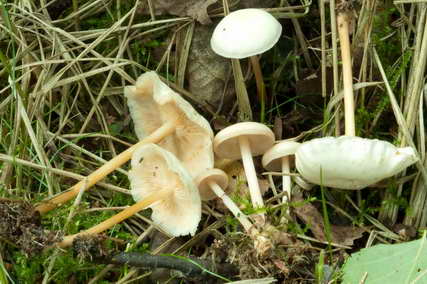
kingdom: Fungi
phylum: Basidiomycota
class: Agaricomycetes
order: Agaricales
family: Omphalotaceae
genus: Gymnopus
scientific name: Gymnopus aquosus
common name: bleg fladhat
